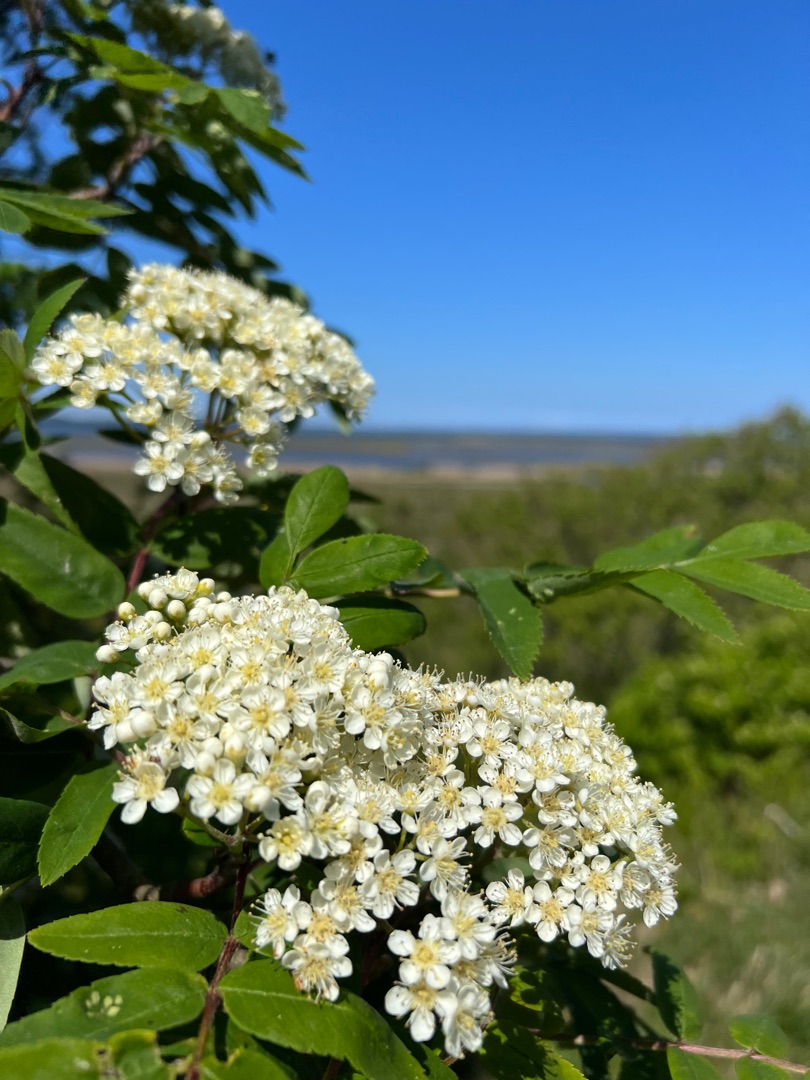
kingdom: Plantae
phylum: Tracheophyta
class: Magnoliopsida
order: Rosales
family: Rosaceae
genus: Sorbus
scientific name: Sorbus aucuparia
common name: Almindelig røn
